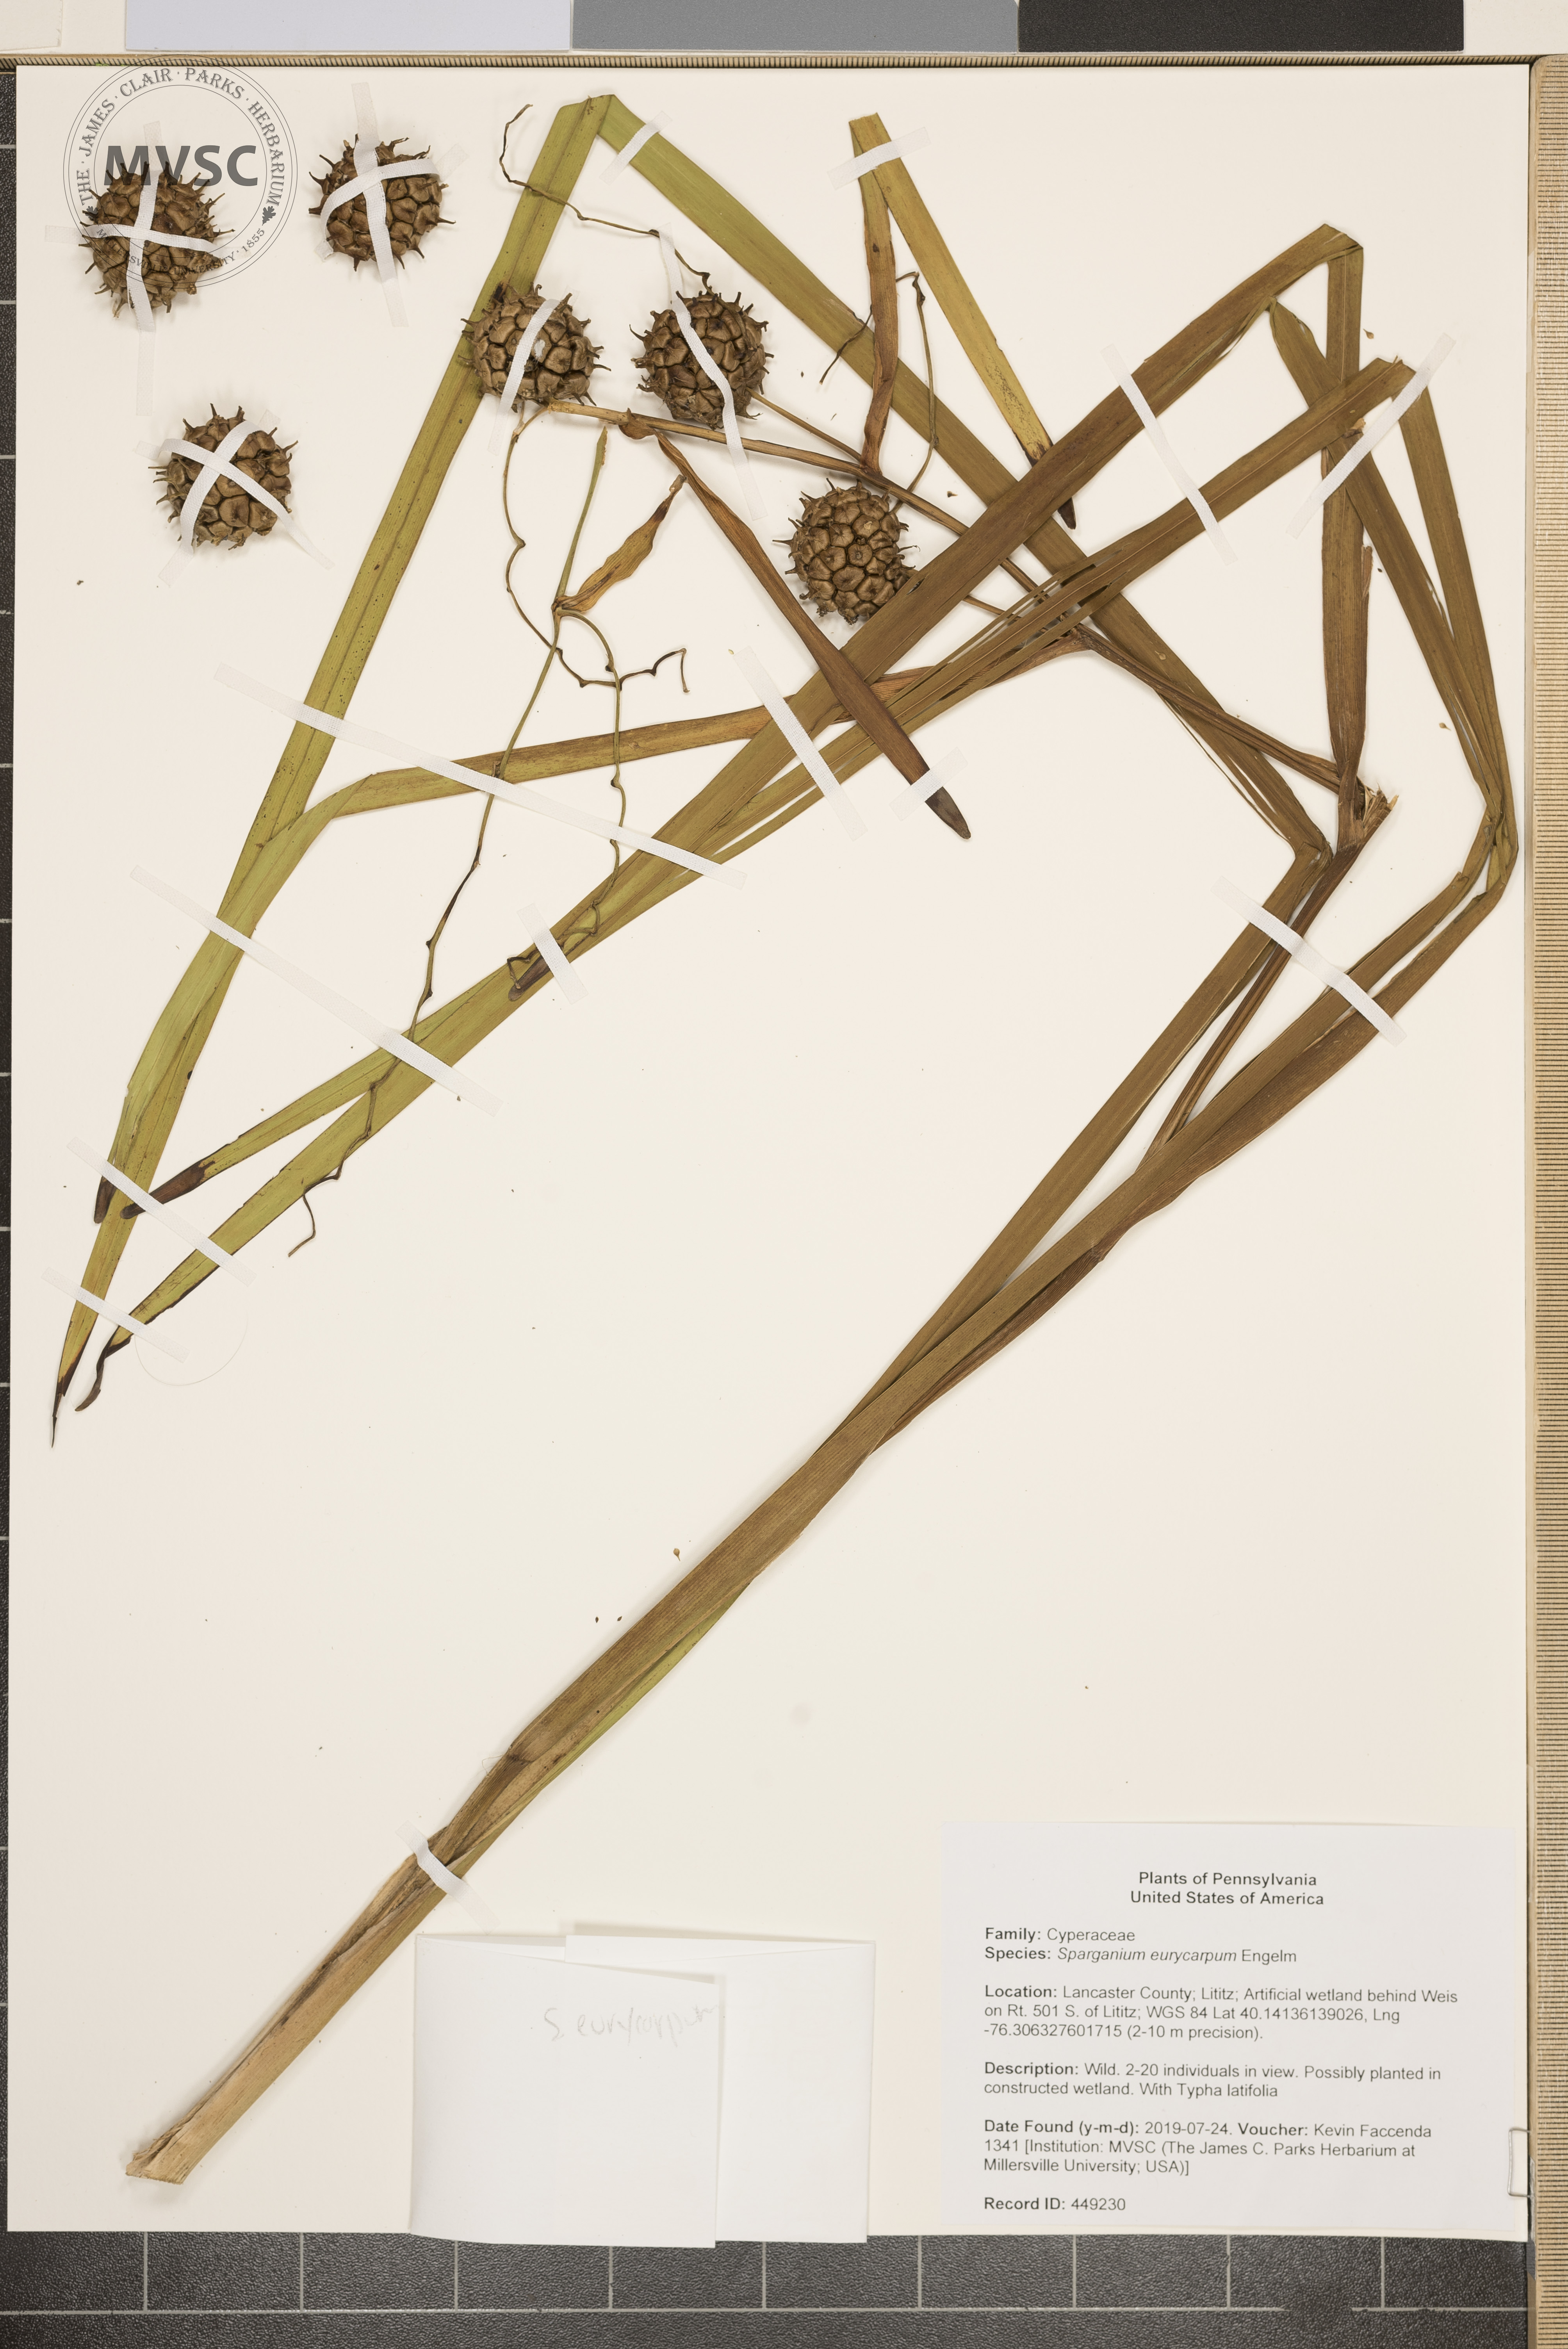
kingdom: Plantae
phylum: Tracheophyta
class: Liliopsida
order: Poales
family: Typhaceae
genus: Sparganium
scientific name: Sparganium eurycarpum
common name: Broad-fruited burreed
